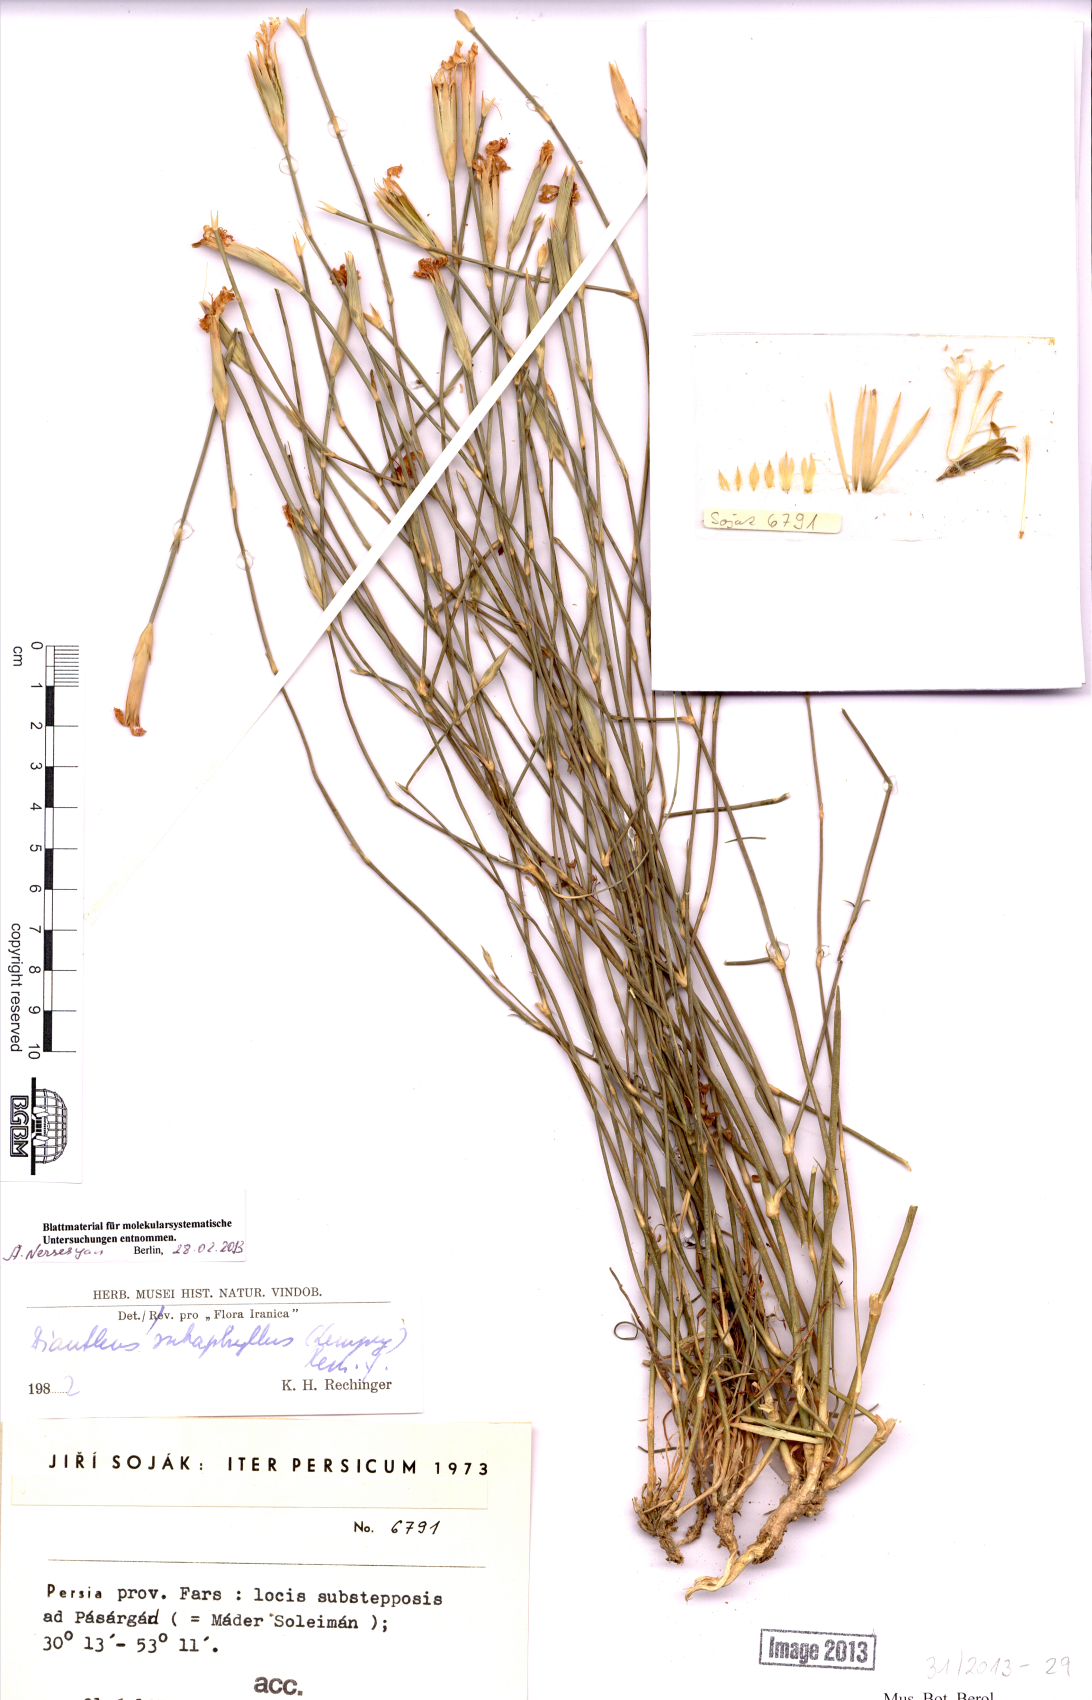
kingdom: Plantae
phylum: Tracheophyta
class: Magnoliopsida
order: Caryophyllales
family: Caryophyllaceae
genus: Dianthus
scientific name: Dianthus subaphyllus
